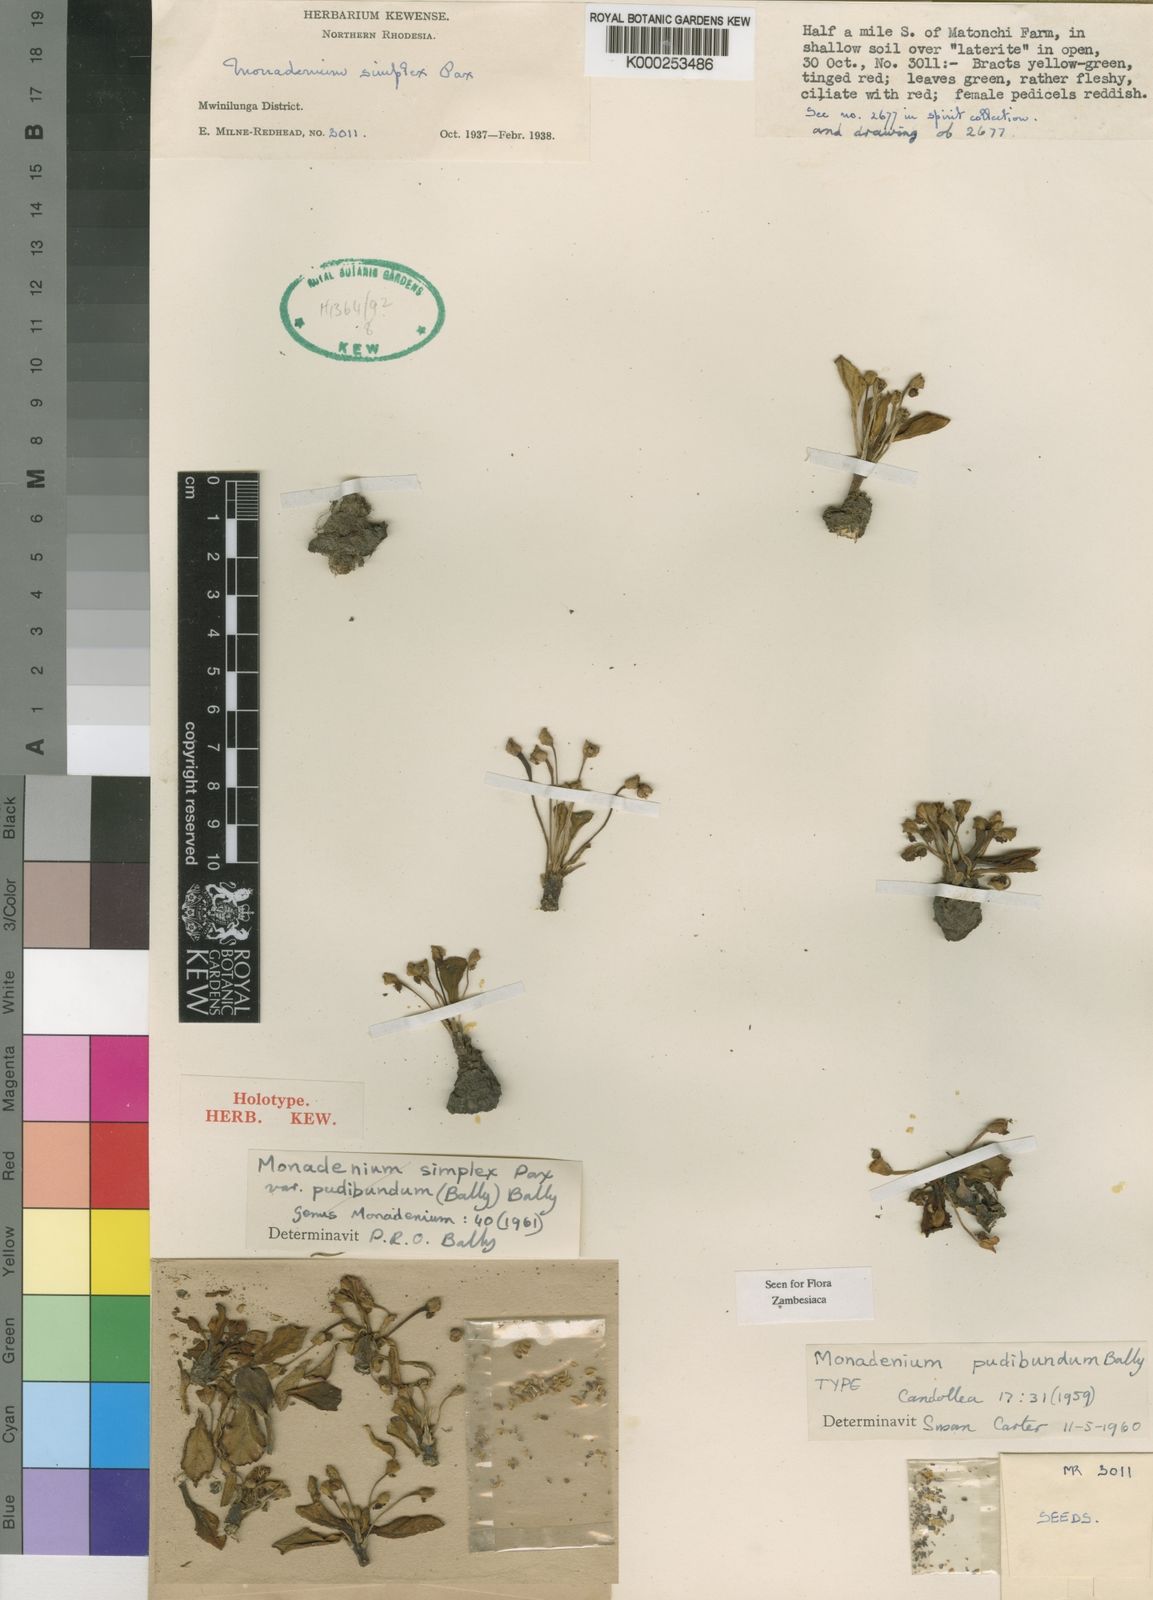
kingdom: Plantae
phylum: Tracheophyta
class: Magnoliopsida
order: Malpighiales
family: Euphorbiaceae
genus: Euphorbia
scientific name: Euphorbia pudibunda
